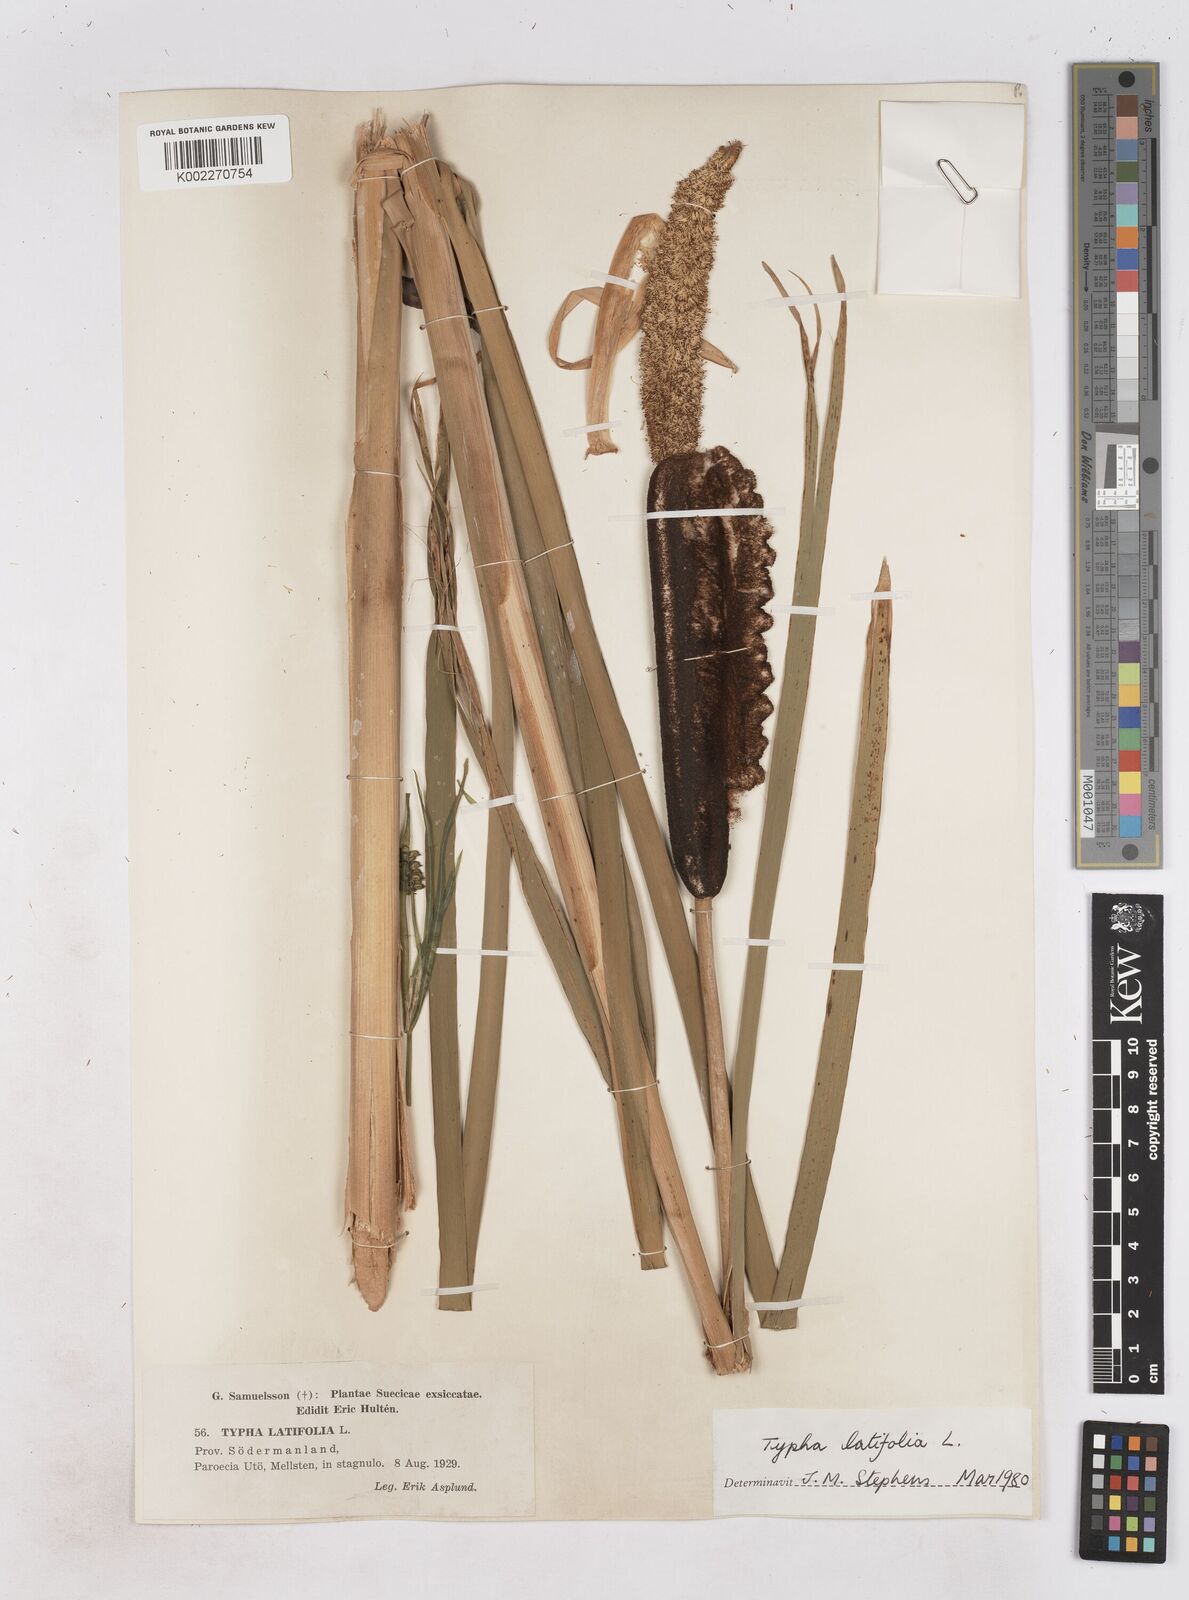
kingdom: Plantae
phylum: Tracheophyta
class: Liliopsida
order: Poales
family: Typhaceae
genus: Typha
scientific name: Typha latifolia
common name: Broadleaf cattail
